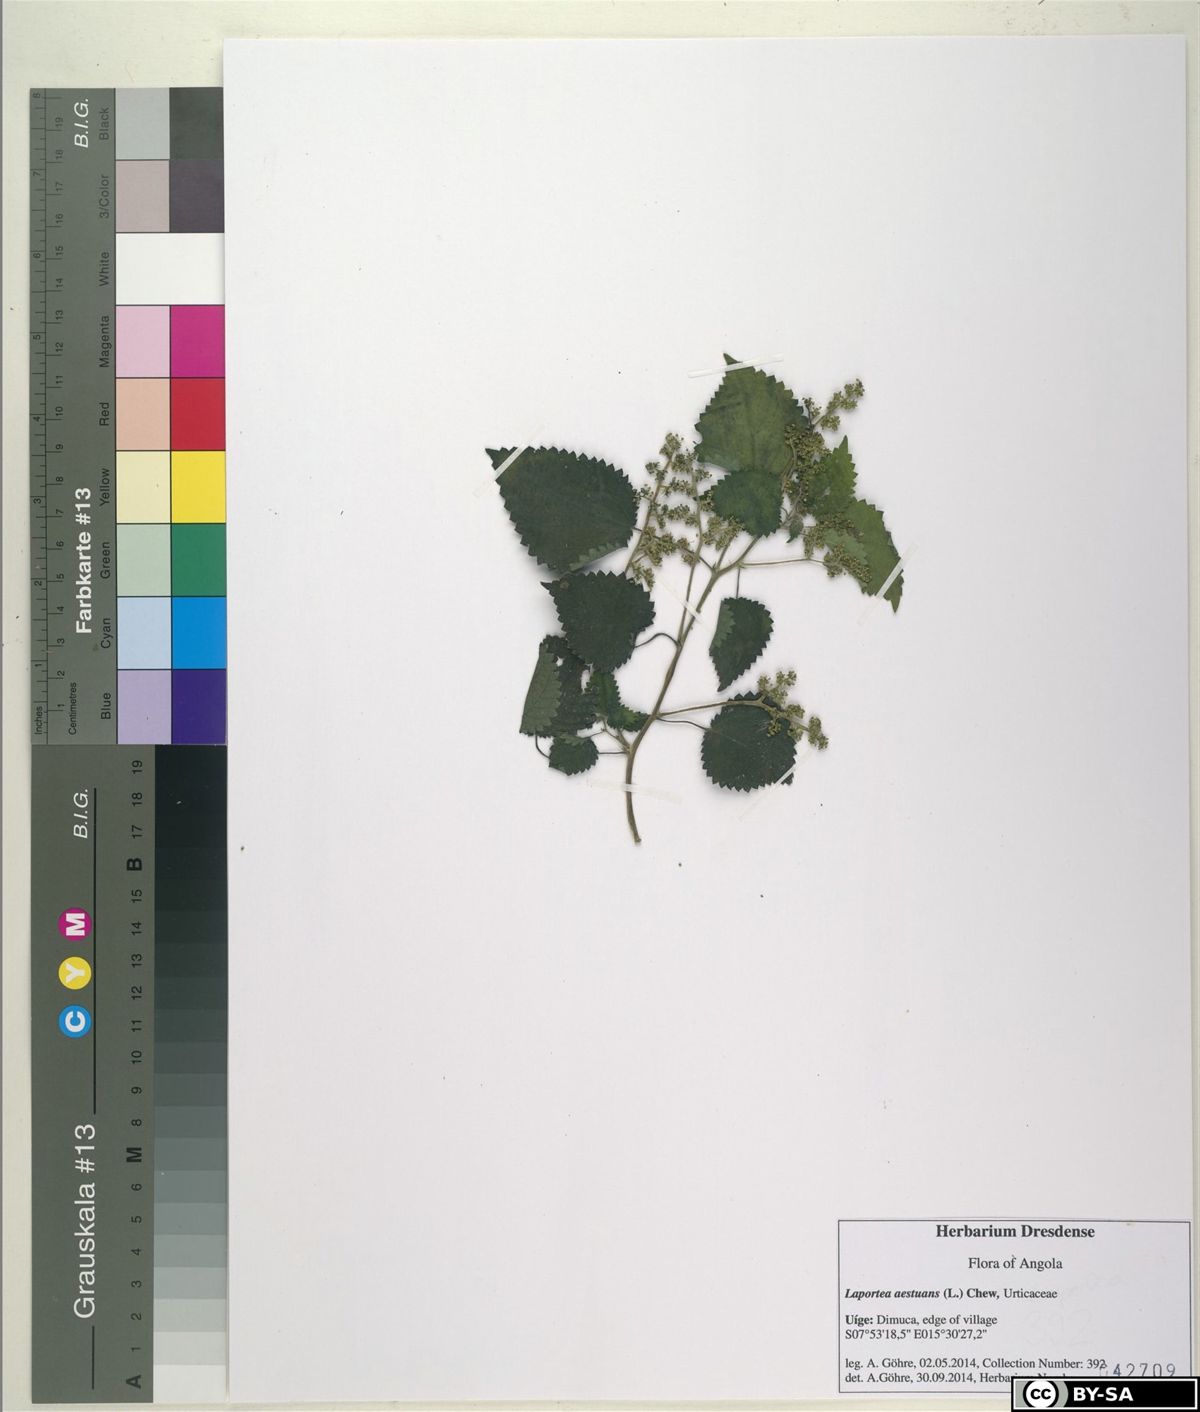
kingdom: Plantae
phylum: Tracheophyta
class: Magnoliopsida
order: Rosales
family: Urticaceae
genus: Laportea
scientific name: Laportea aestuans
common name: West indian woodnettle
